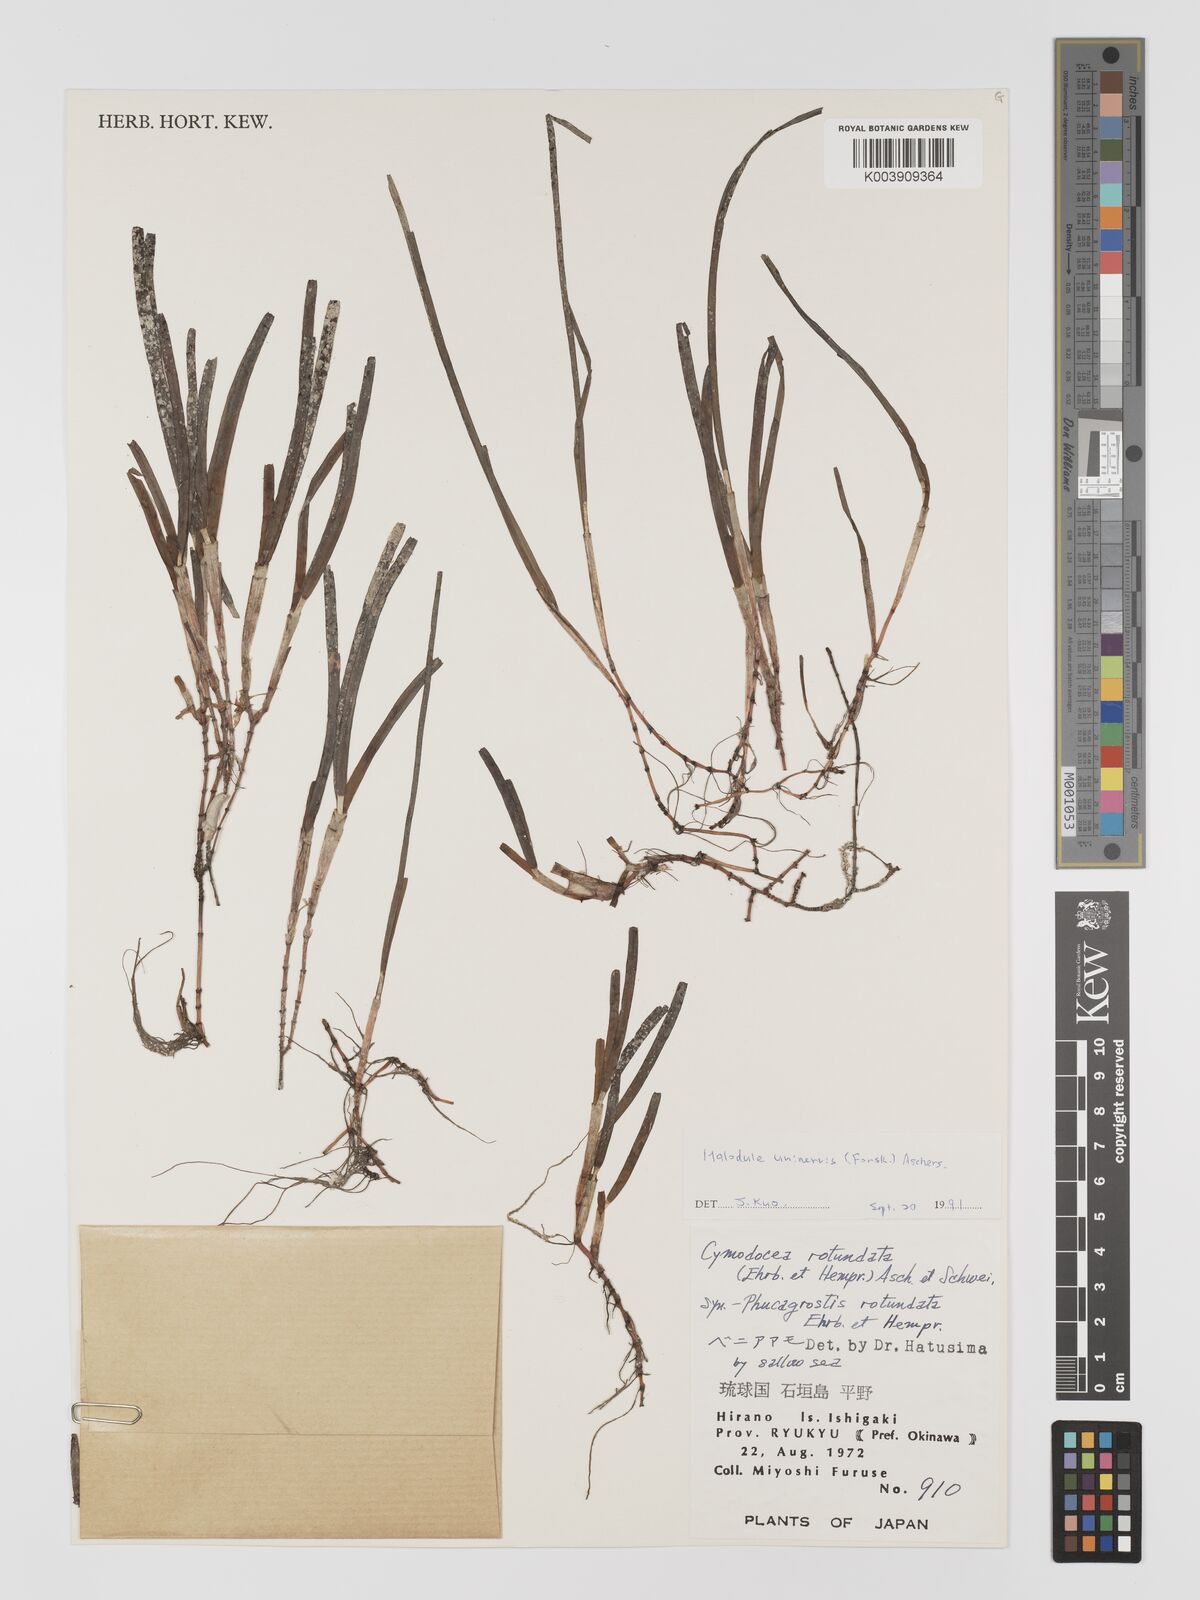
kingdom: Plantae
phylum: Tracheophyta
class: Liliopsida
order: Alismatales
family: Cymodoceaceae
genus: Cymodocea
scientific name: Cymodocea rotundata
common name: Species code: cr
